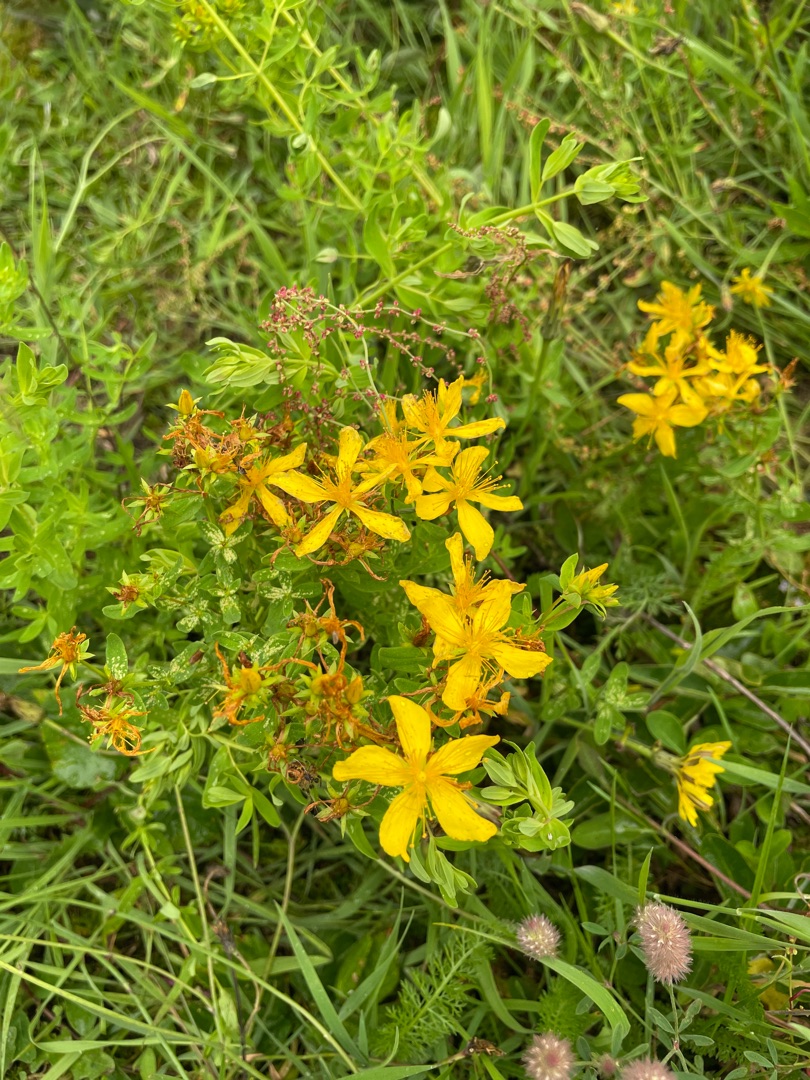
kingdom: Plantae
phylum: Tracheophyta
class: Magnoliopsida
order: Malpighiales
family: Hypericaceae
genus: Hypericum
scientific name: Hypericum perforatum
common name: Prikbladet perikon
